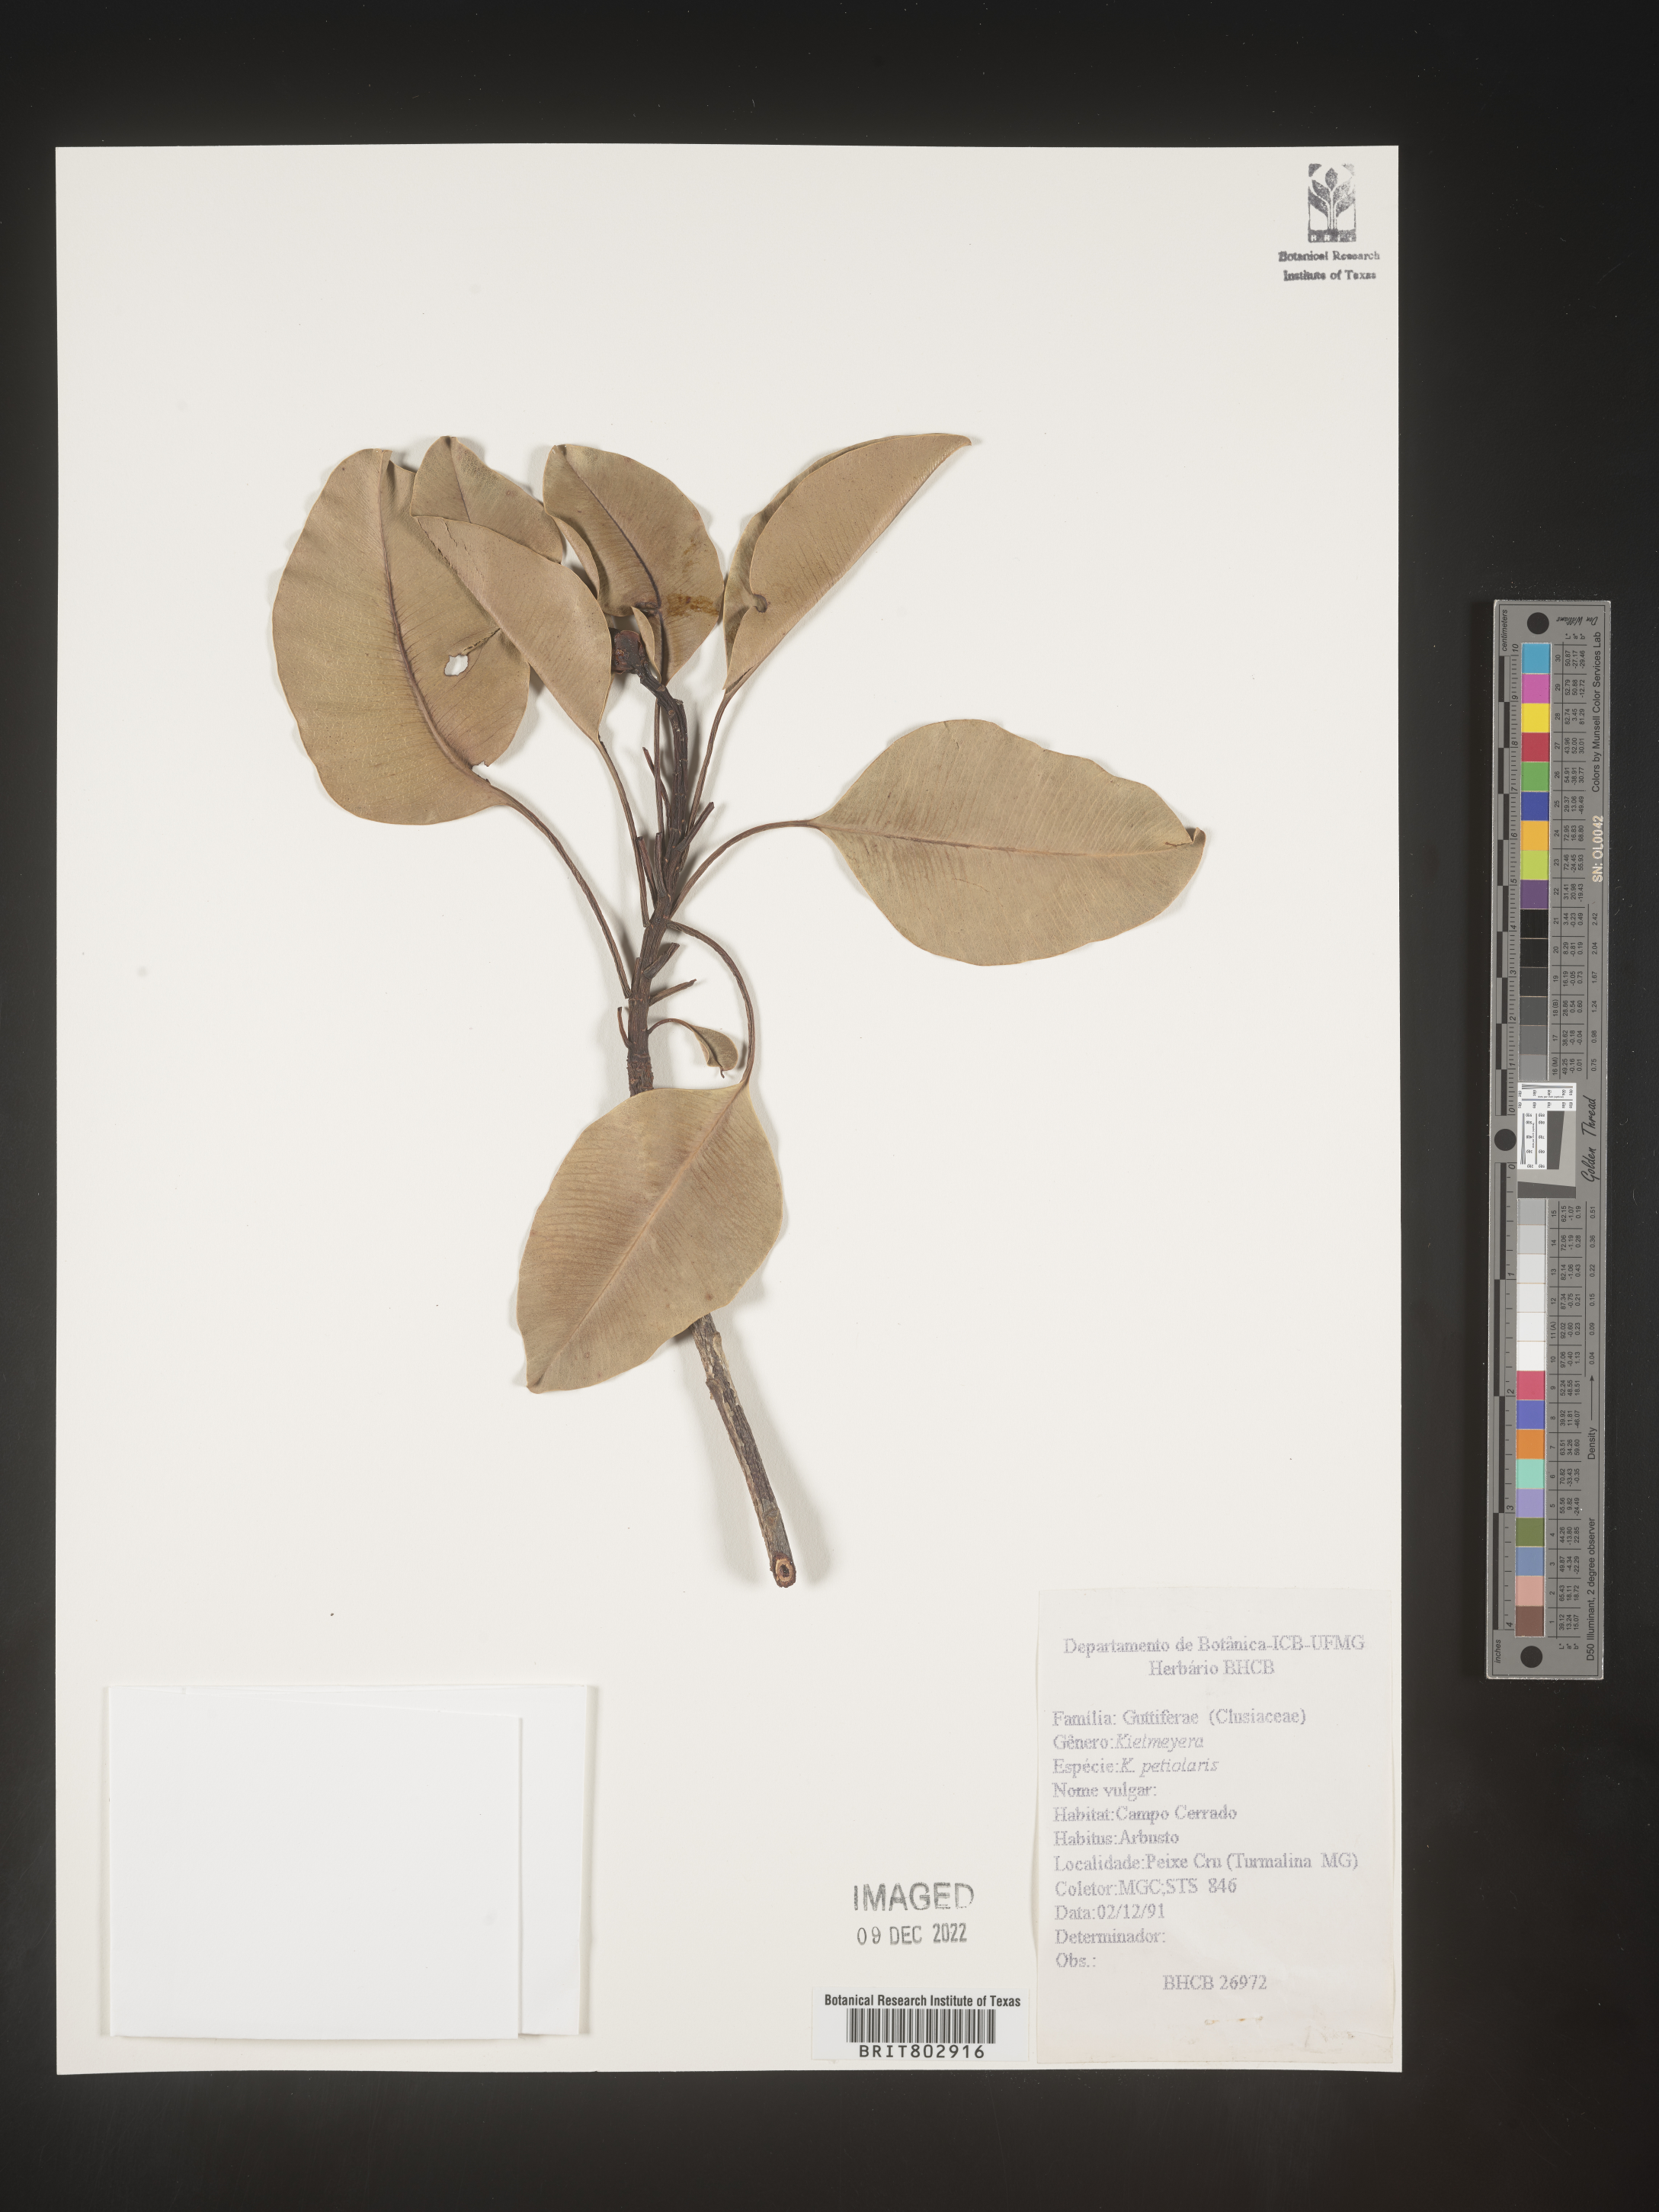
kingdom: Plantae
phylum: Tracheophyta
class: Magnoliopsida
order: Malpighiales
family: Calophyllaceae
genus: Kielmeyera
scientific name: Kielmeyera
